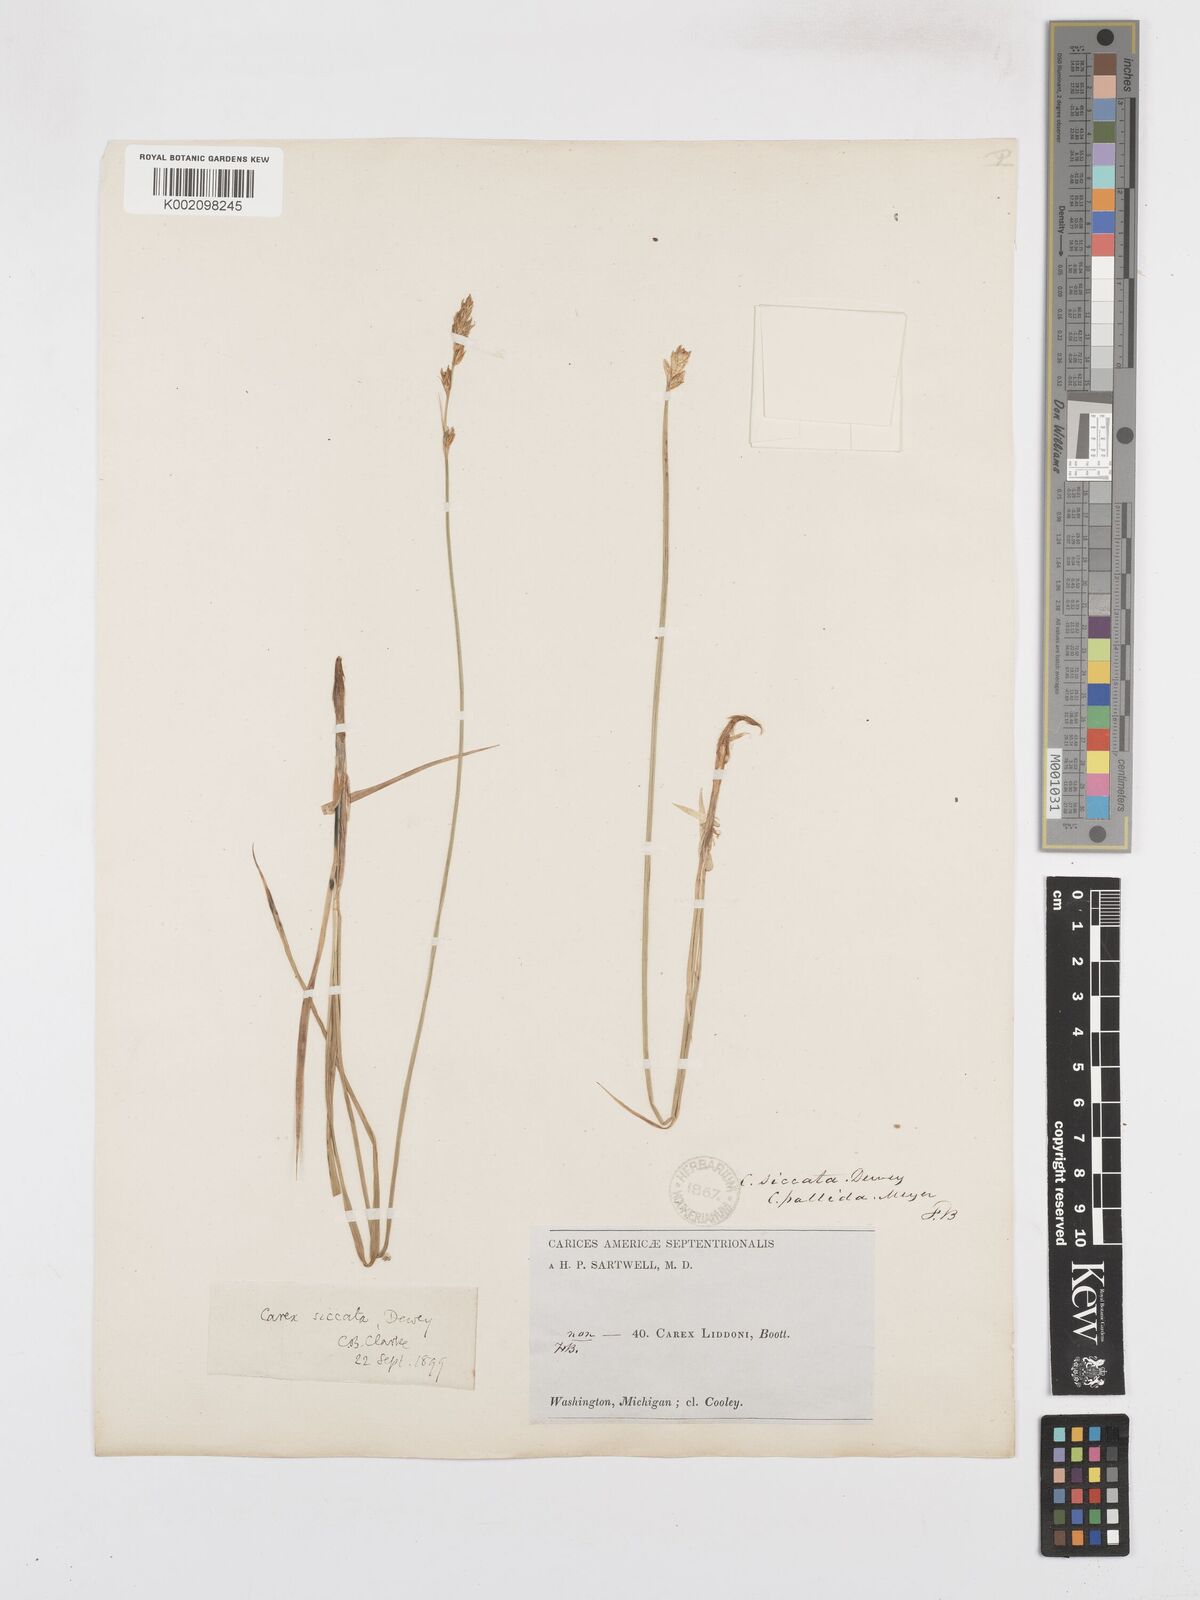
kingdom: Plantae
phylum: Tracheophyta
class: Liliopsida
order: Poales
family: Cyperaceae
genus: Carex
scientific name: Carex foenea
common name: Bronze sedge
